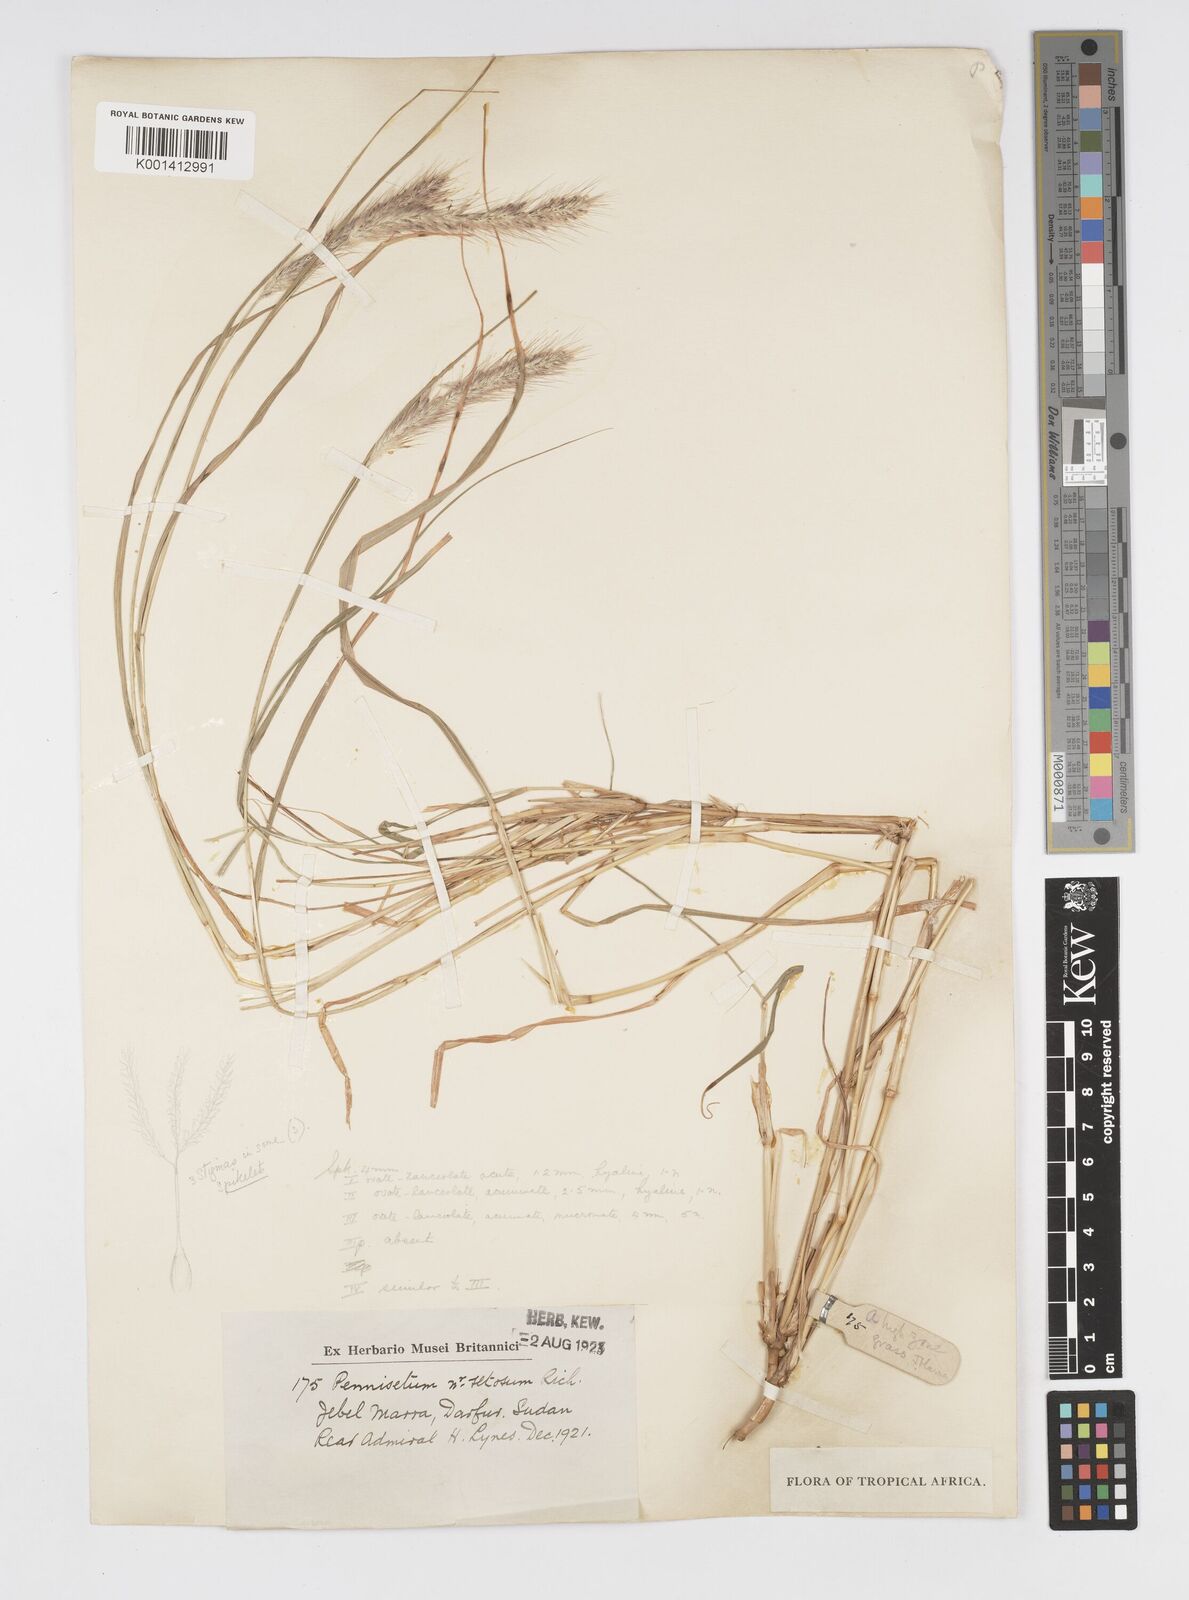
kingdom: Plantae
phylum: Tracheophyta
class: Liliopsida
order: Poales
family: Poaceae
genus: Cenchrus
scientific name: Cenchrus gracilescens
